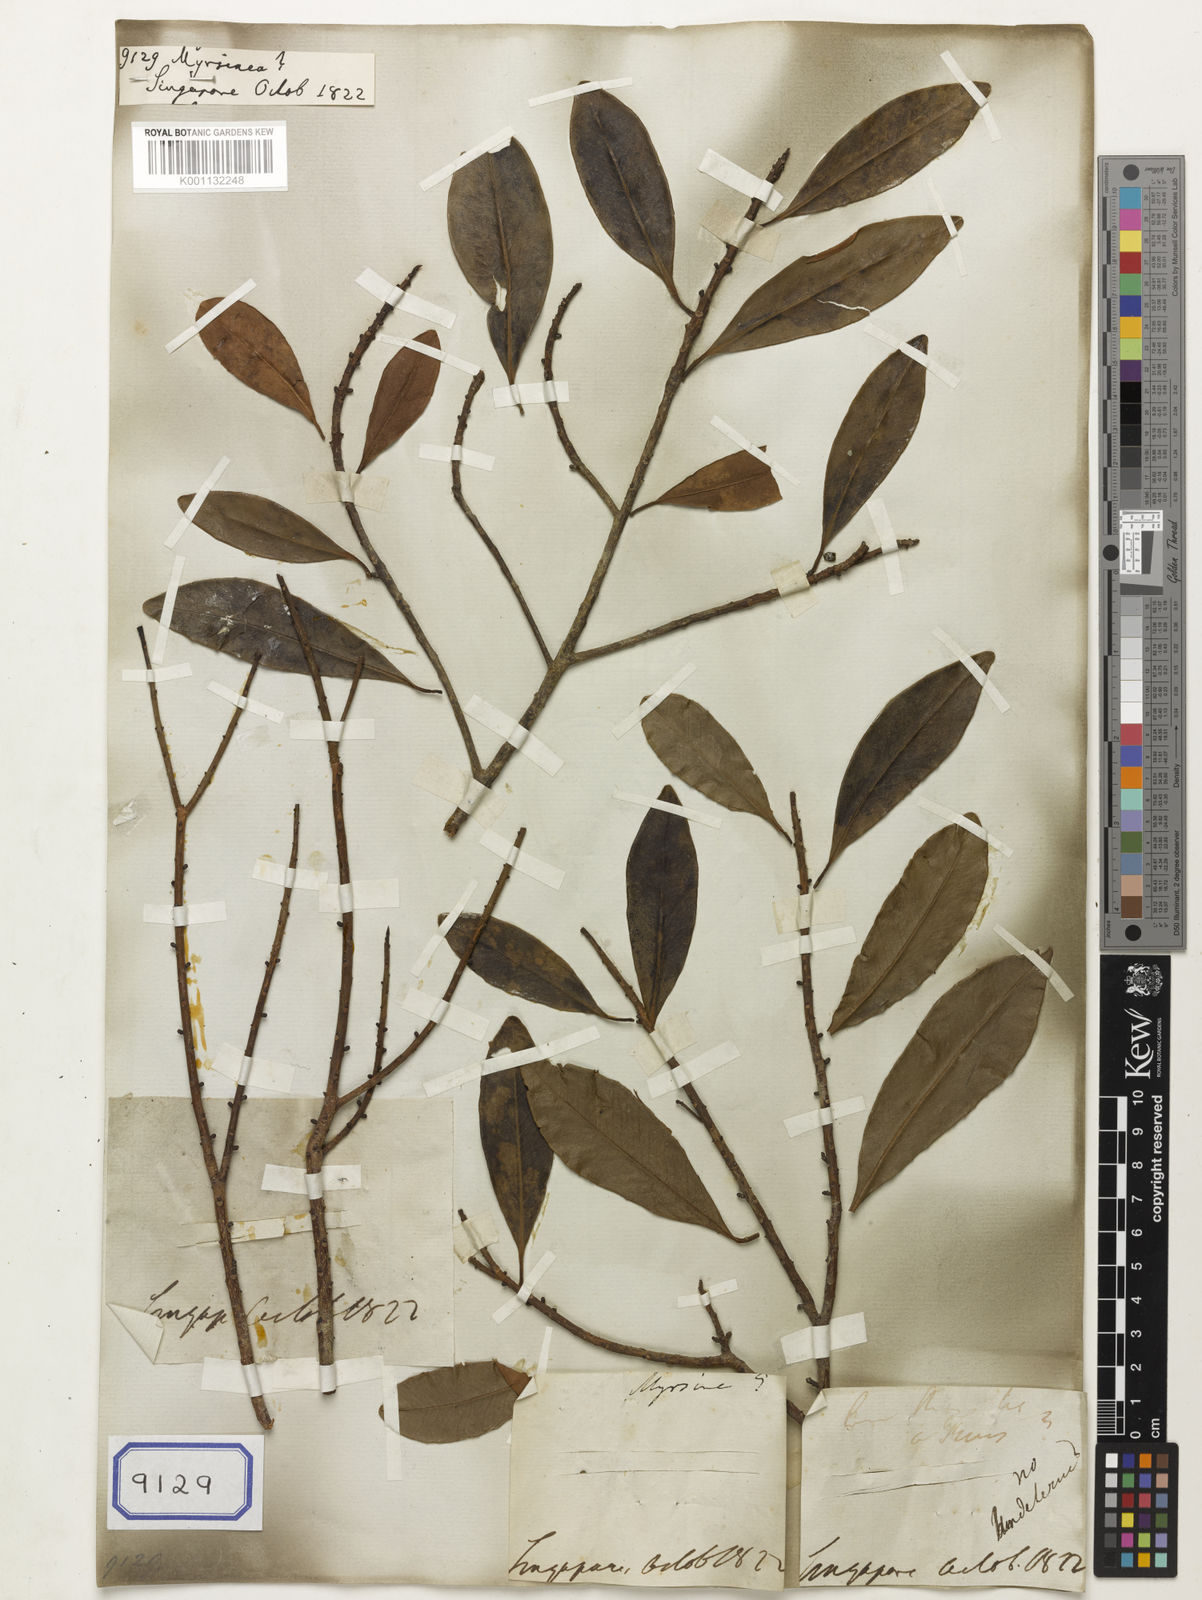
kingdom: Plantae
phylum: Tracheophyta
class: Magnoliopsida
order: Ericales
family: Primulaceae
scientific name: Primulaceae
